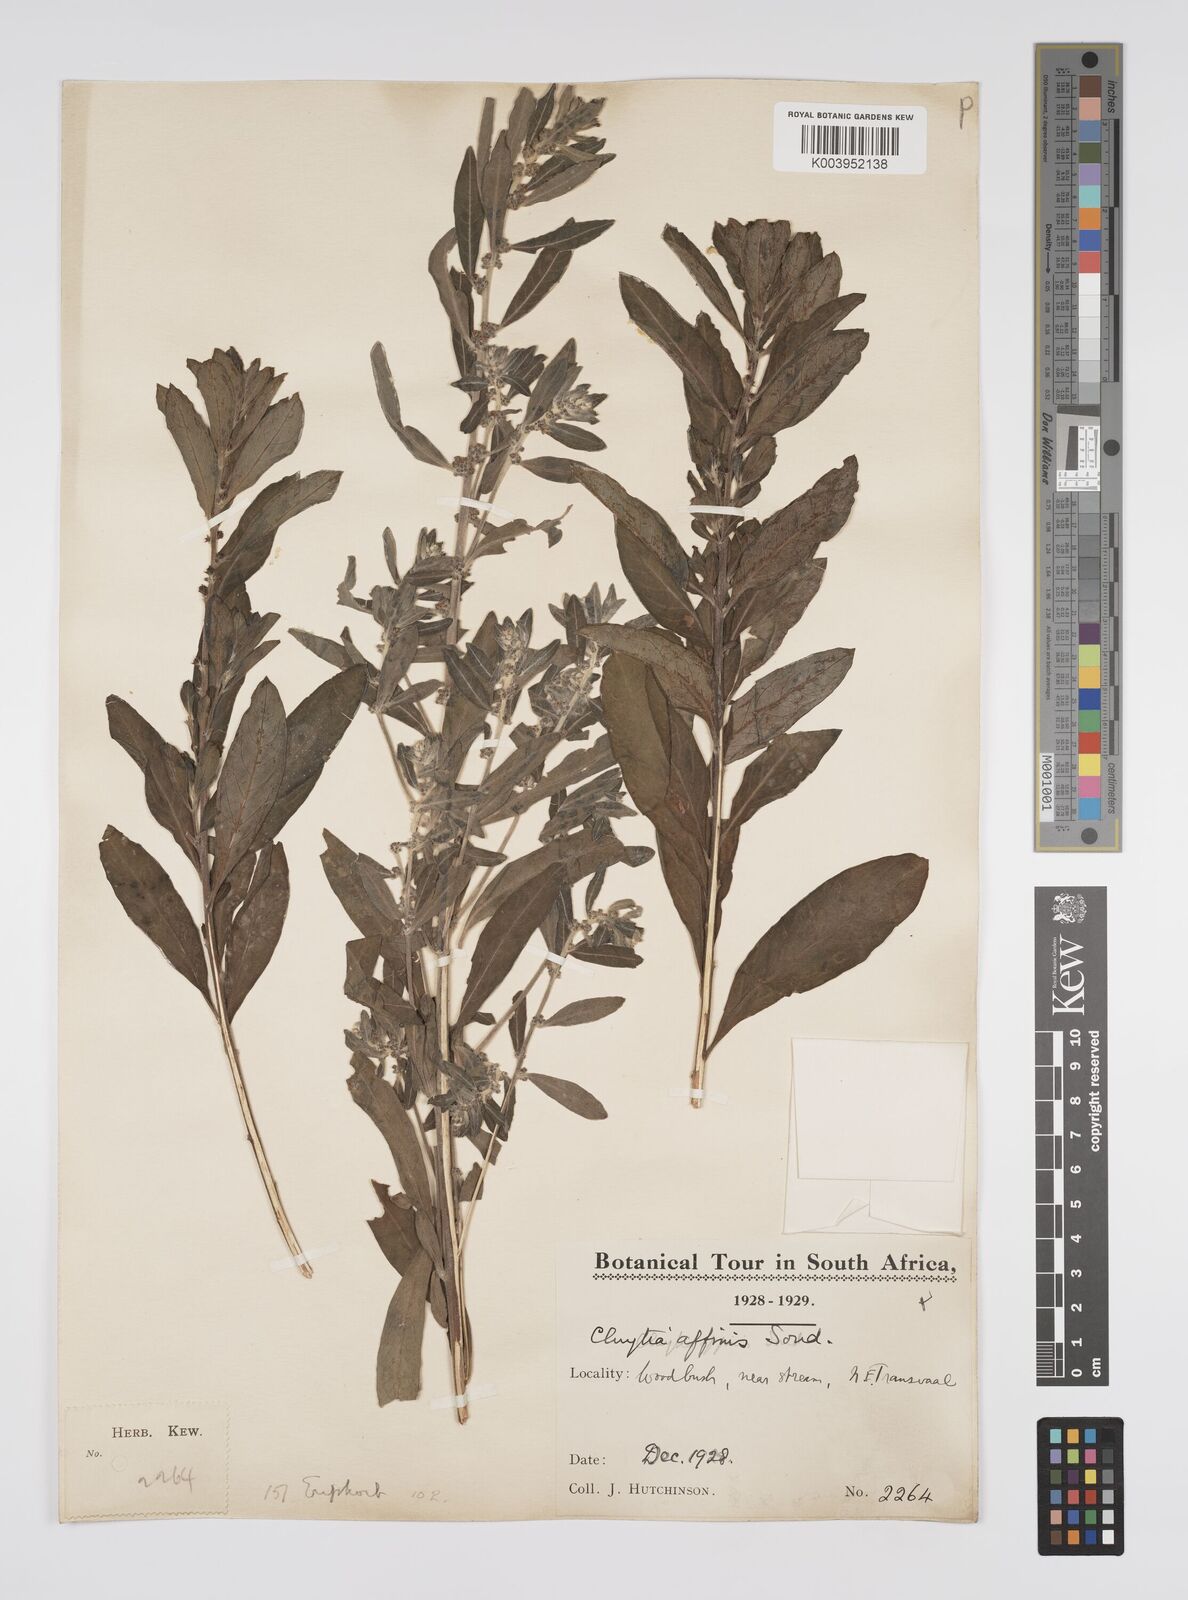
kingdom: Plantae
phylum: Tracheophyta
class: Magnoliopsida
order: Malpighiales
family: Peraceae
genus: Clutia
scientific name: Clutia affinis
